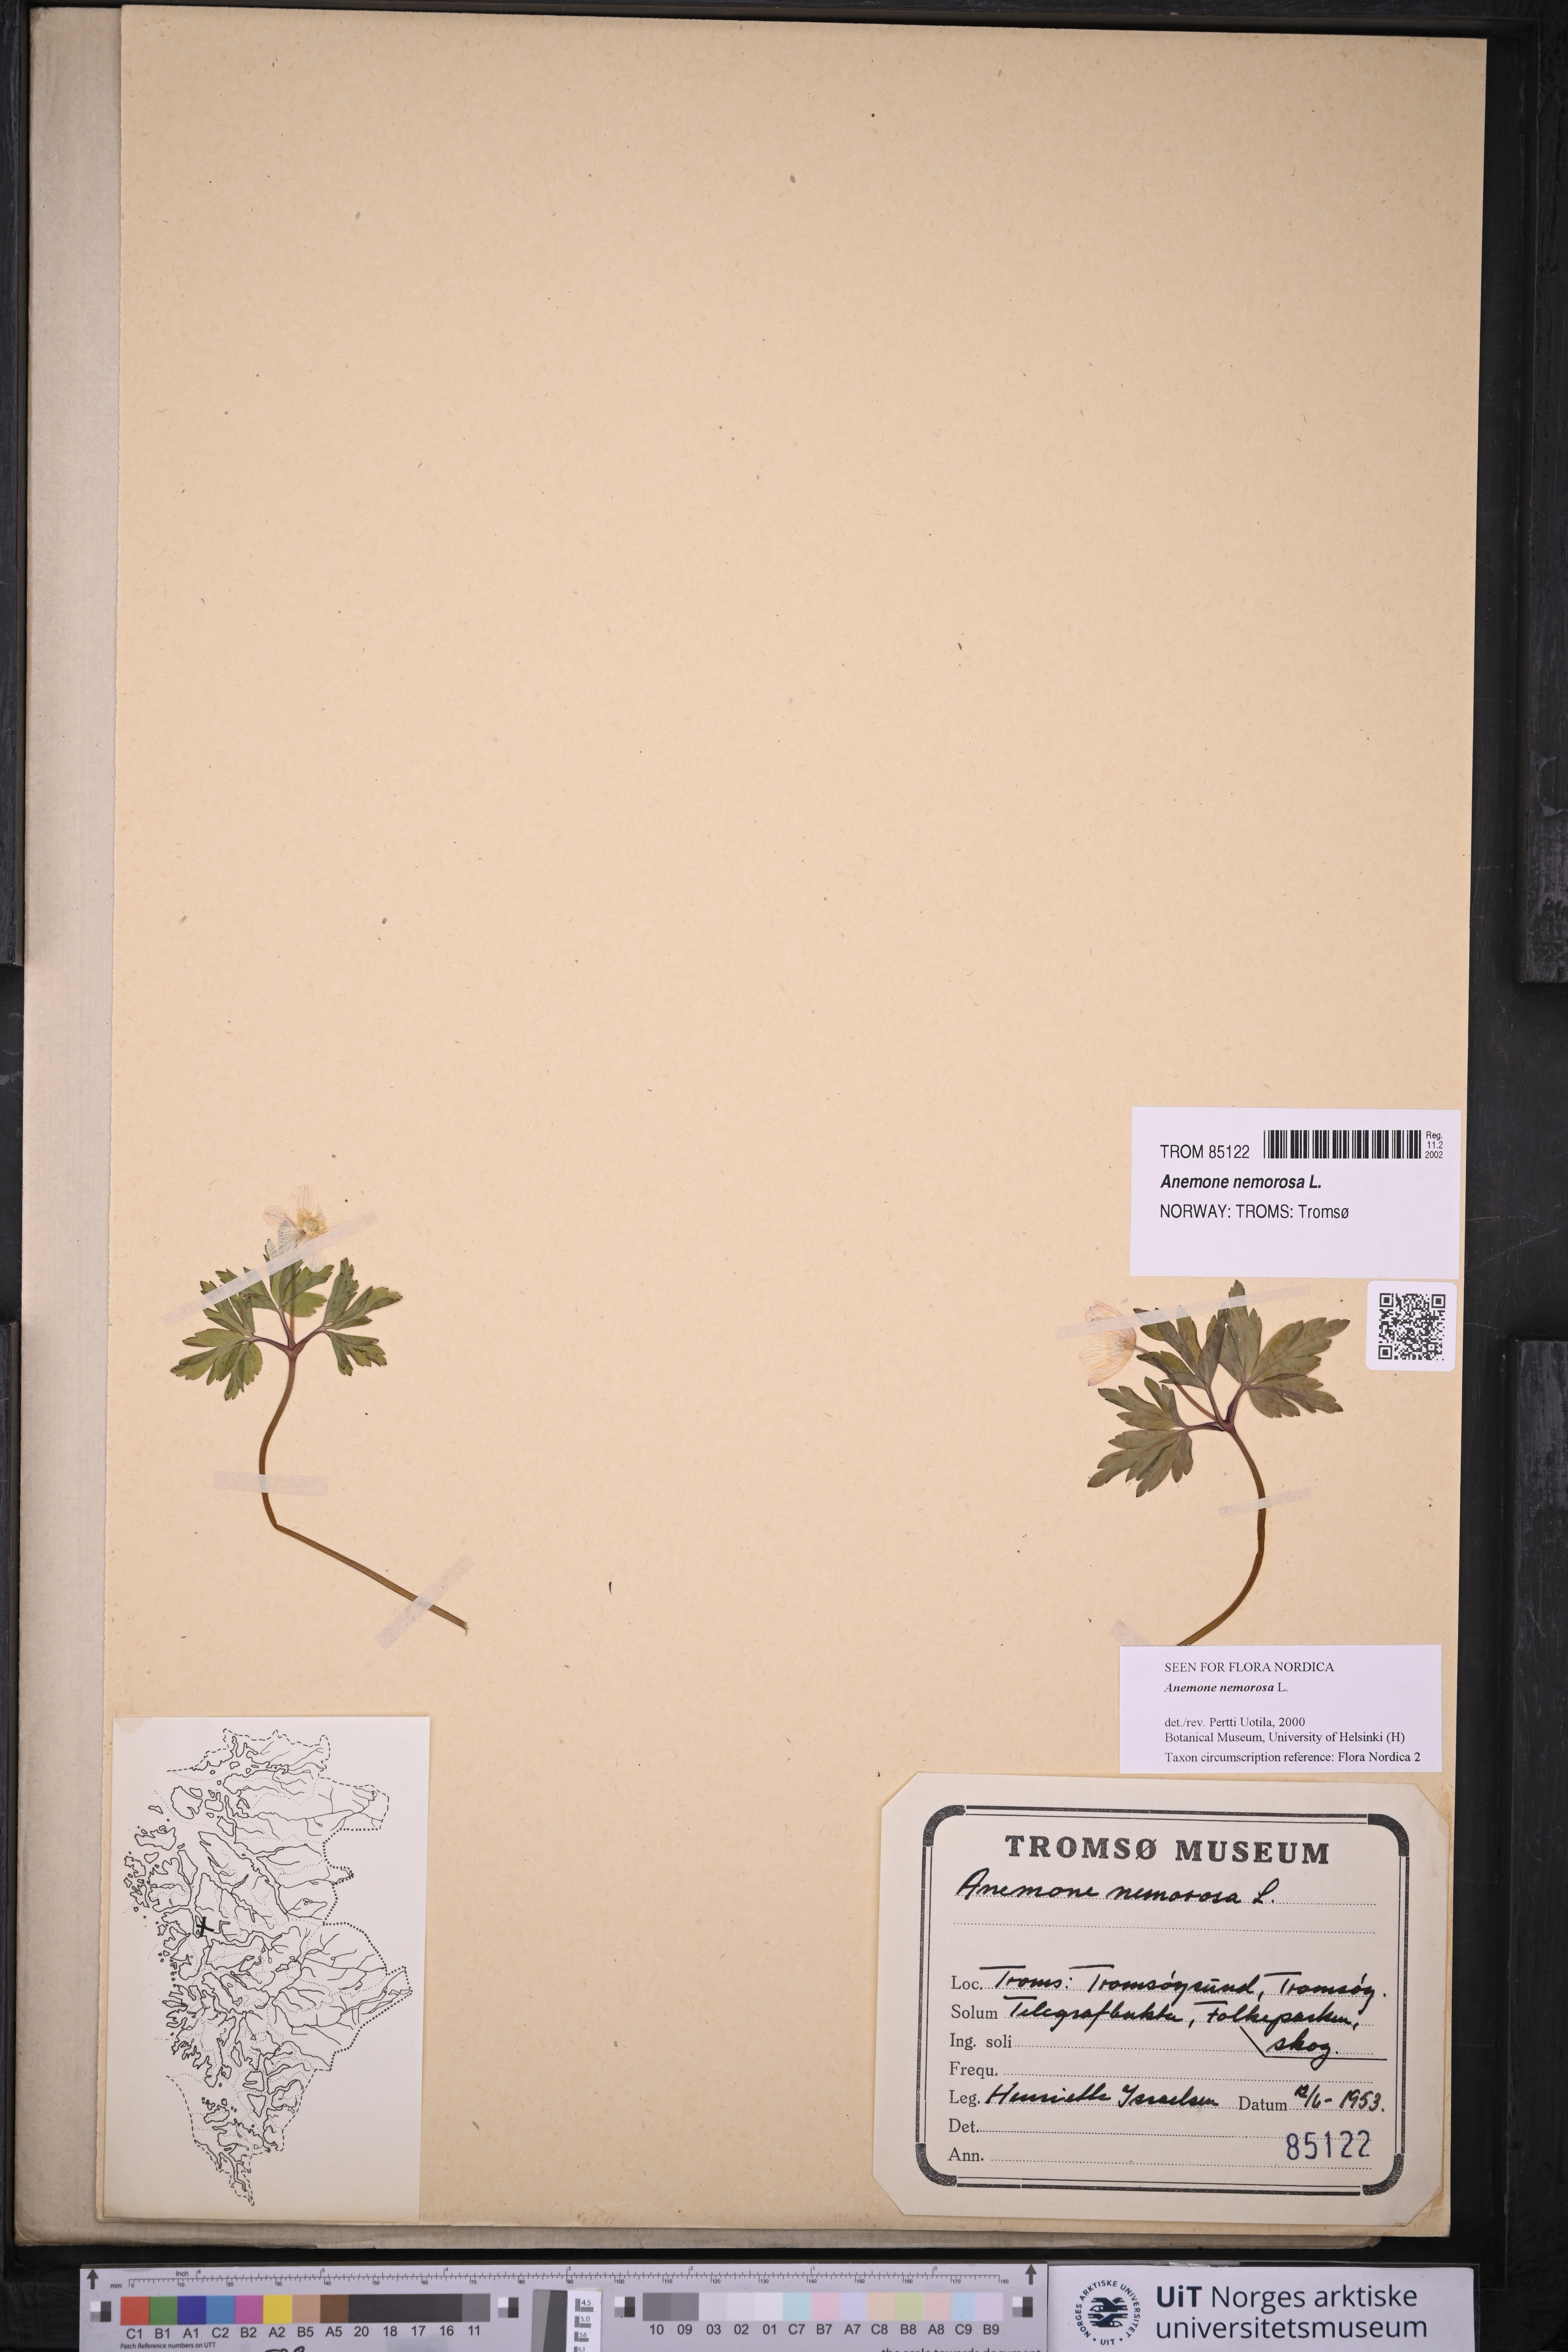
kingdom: Plantae
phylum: Tracheophyta
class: Magnoliopsida
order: Ranunculales
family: Ranunculaceae
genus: Anemone
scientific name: Anemone nemorosa
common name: Wood anemone
